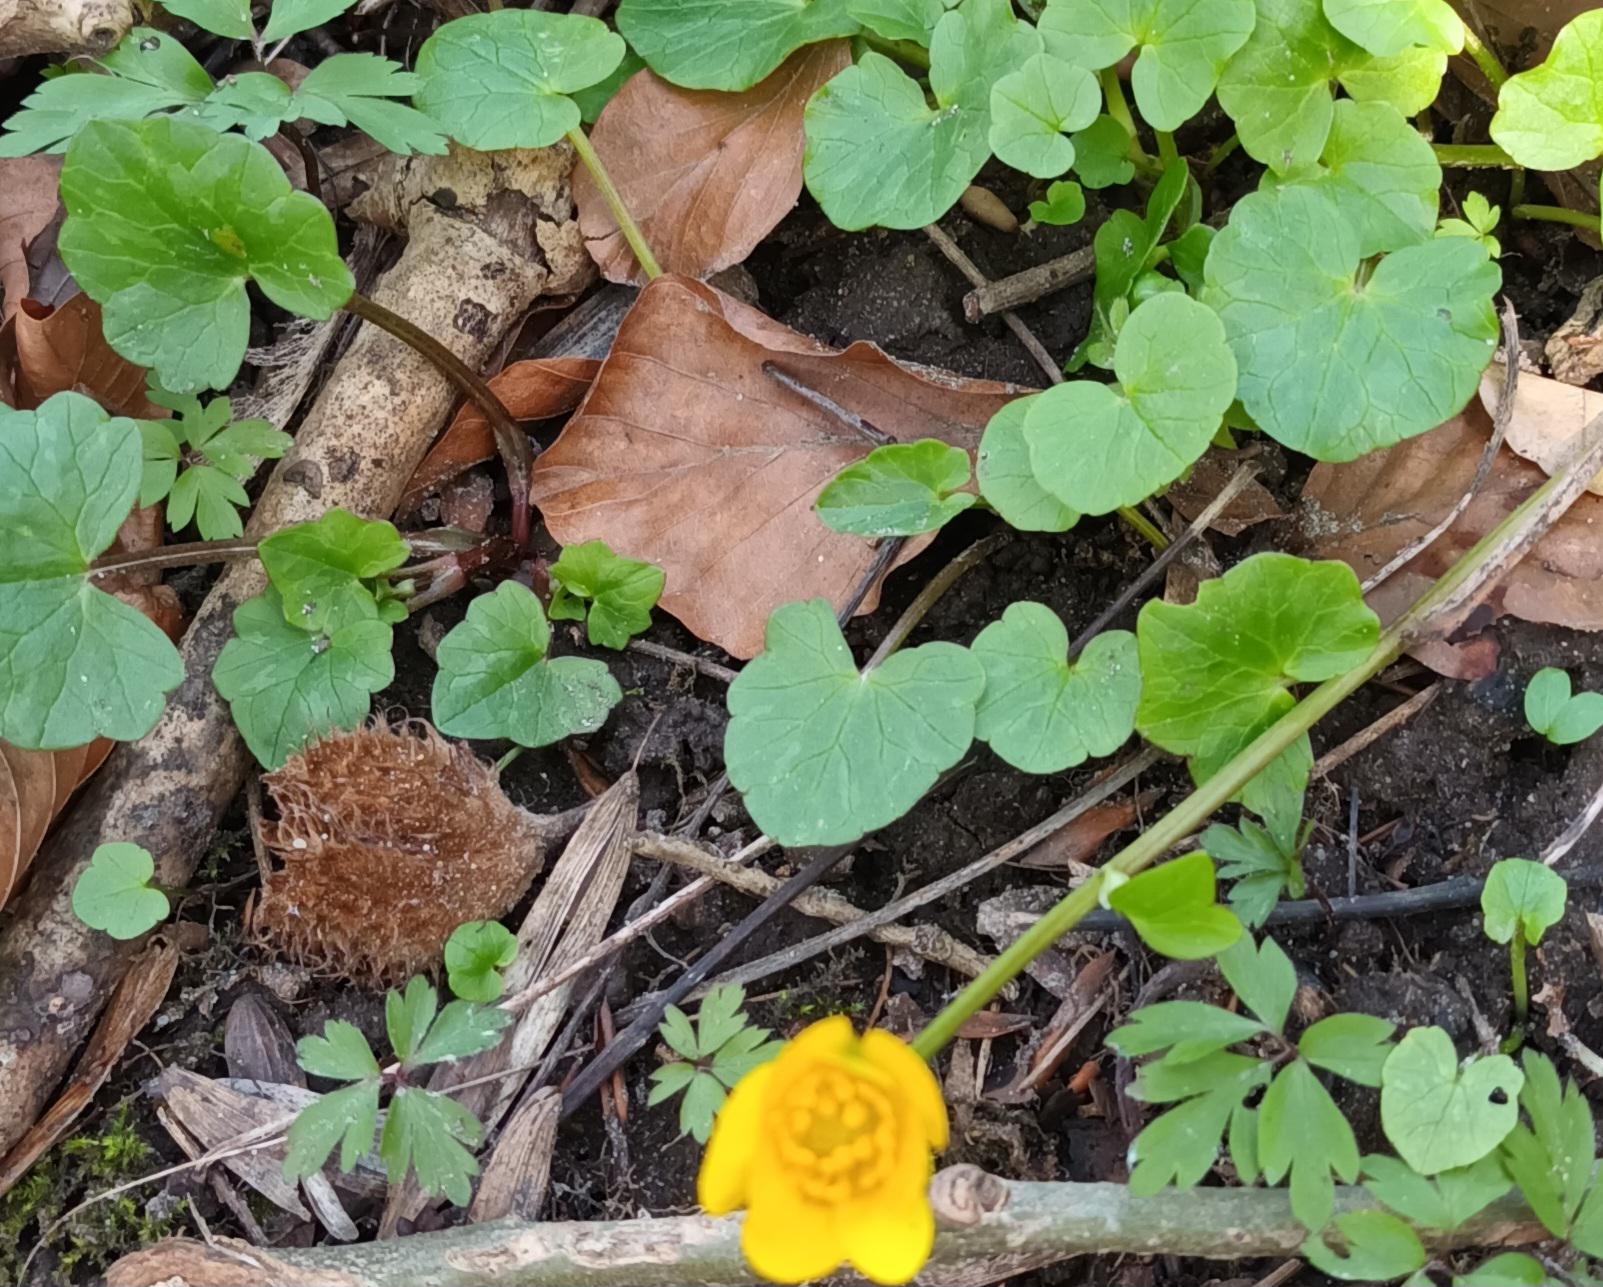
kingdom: Plantae
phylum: Tracheophyta
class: Magnoliopsida
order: Ranunculales
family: Ranunculaceae
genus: Ficaria
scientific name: Ficaria verna
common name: Vorterod
